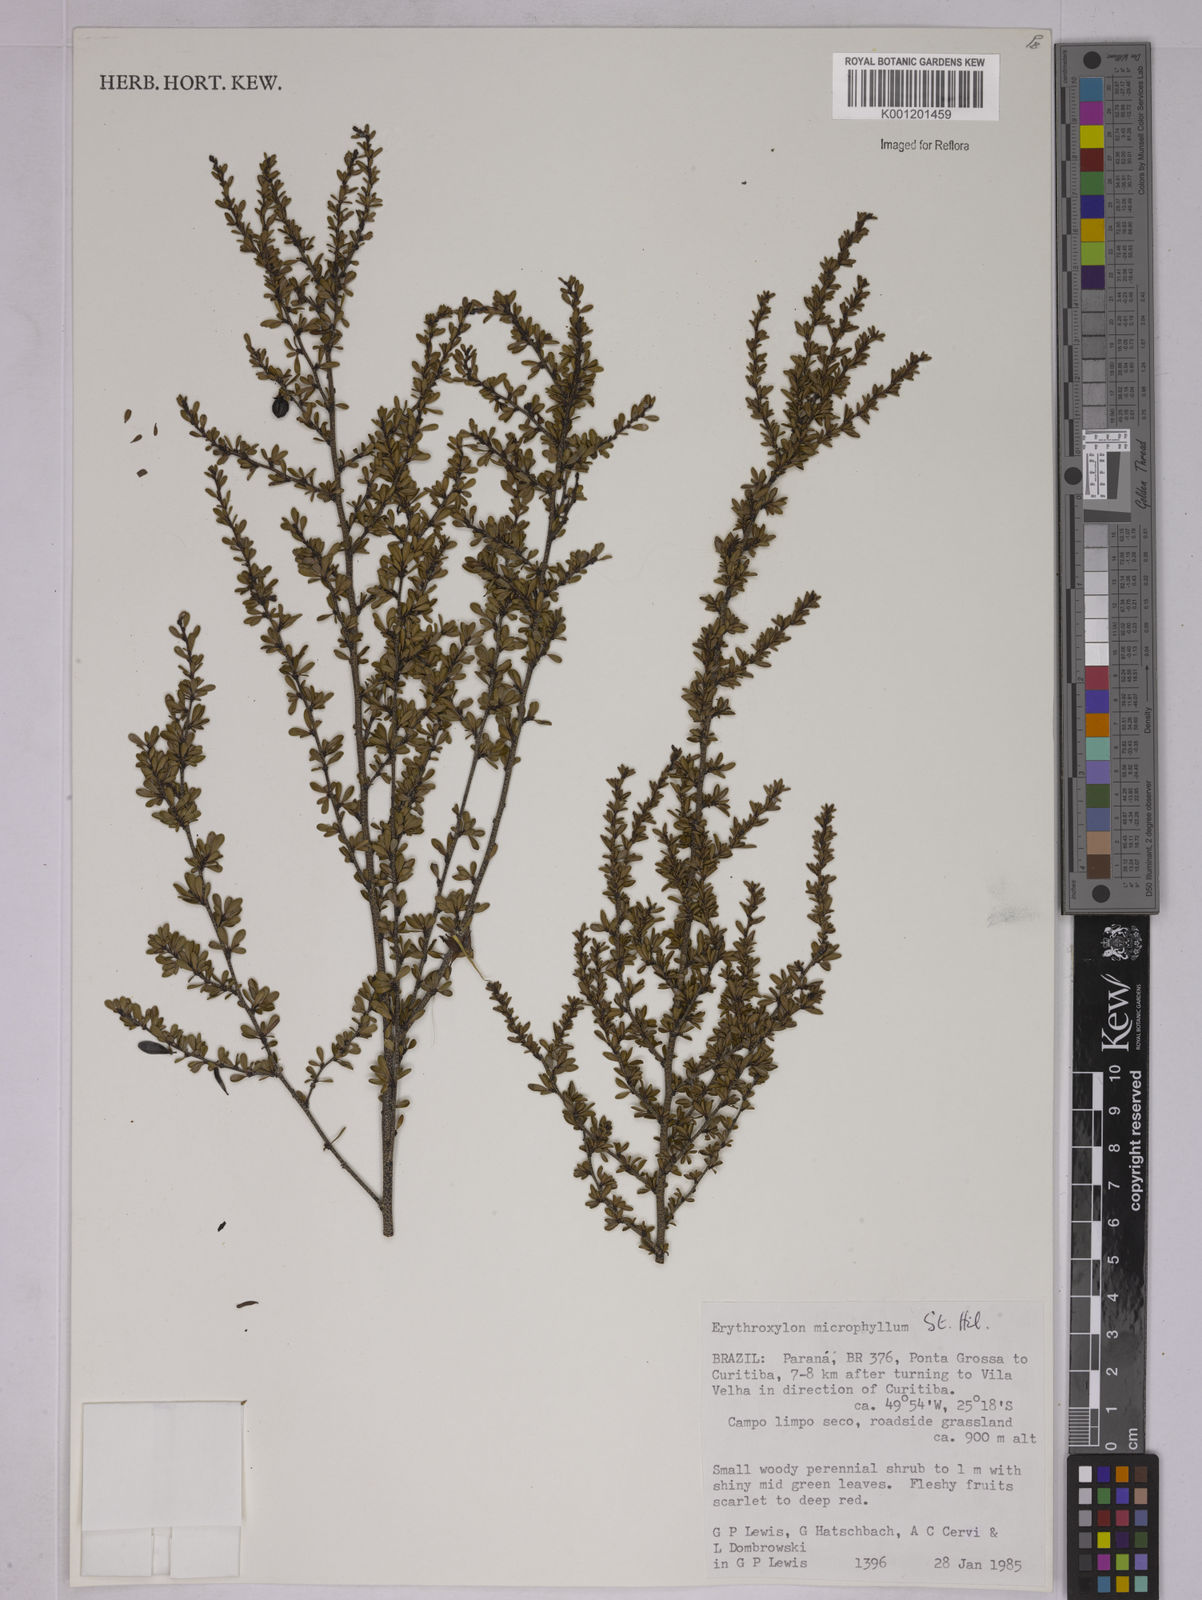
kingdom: Plantae
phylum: Tracheophyta
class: Magnoliopsida
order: Malpighiales
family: Erythroxylaceae
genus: Erythroxylum
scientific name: Erythroxylum microphyllum
